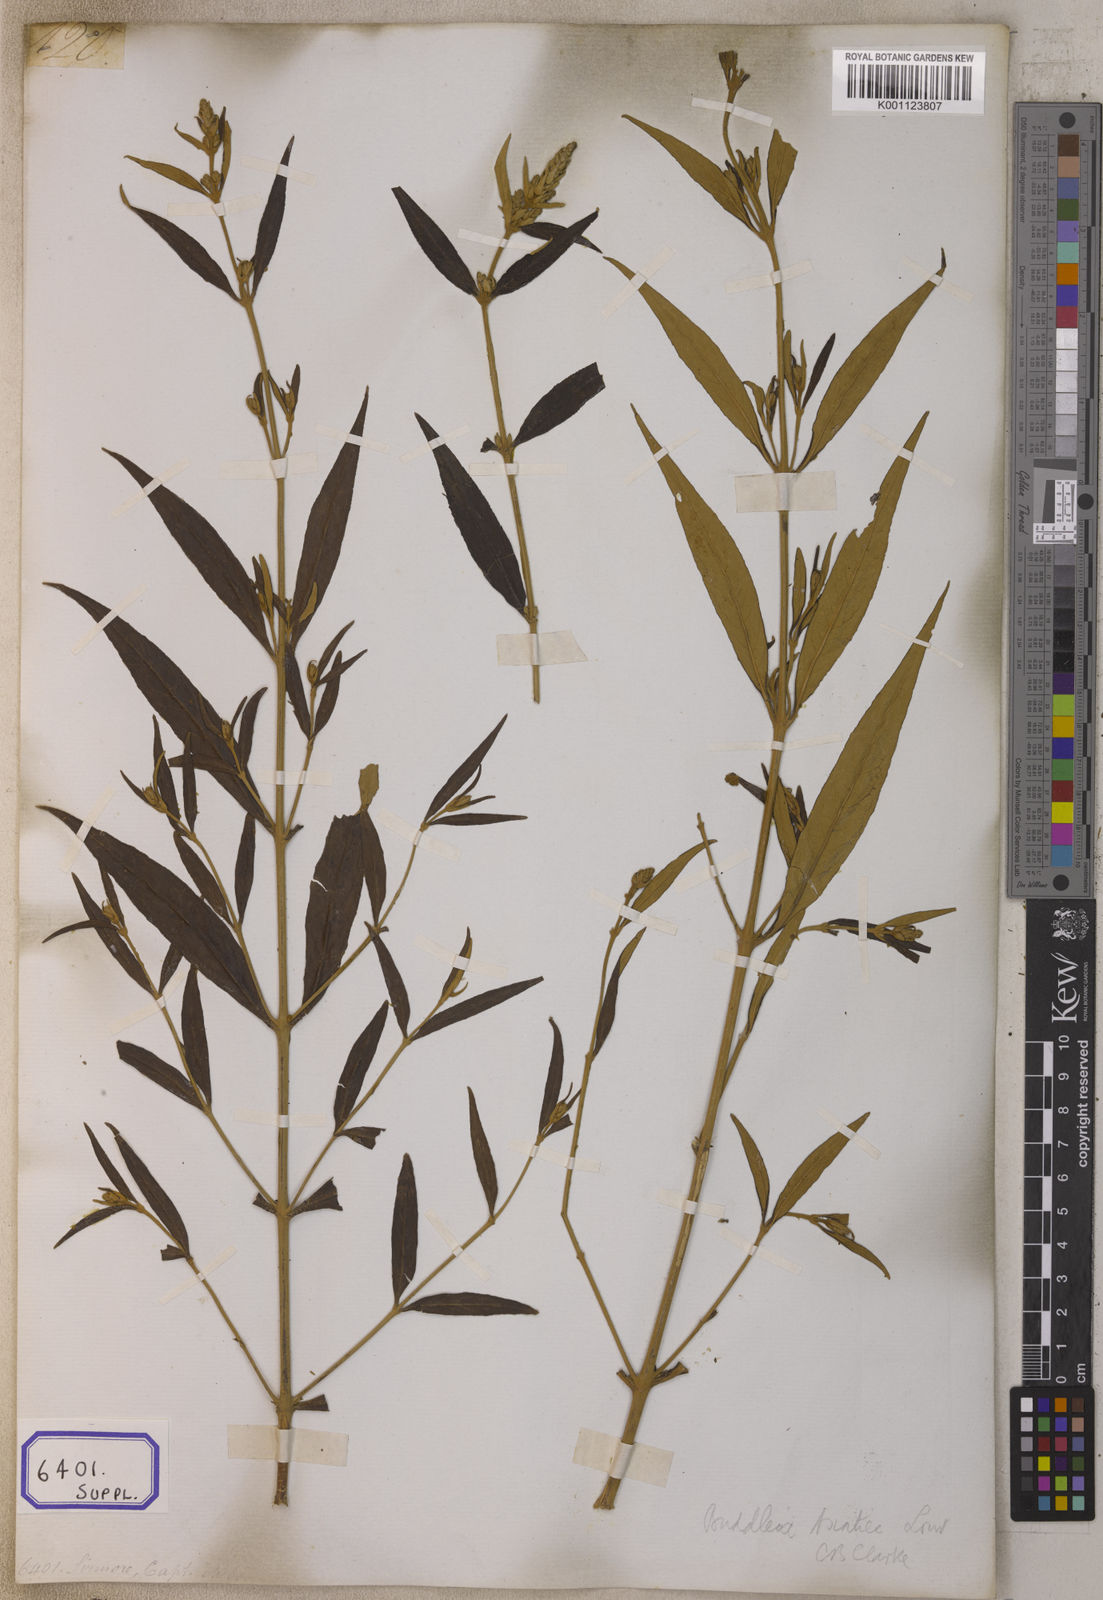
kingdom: Plantae
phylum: Tracheophyta
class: Magnoliopsida
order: Lamiales
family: Scrophulariaceae
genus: Buddleja
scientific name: Buddleja
